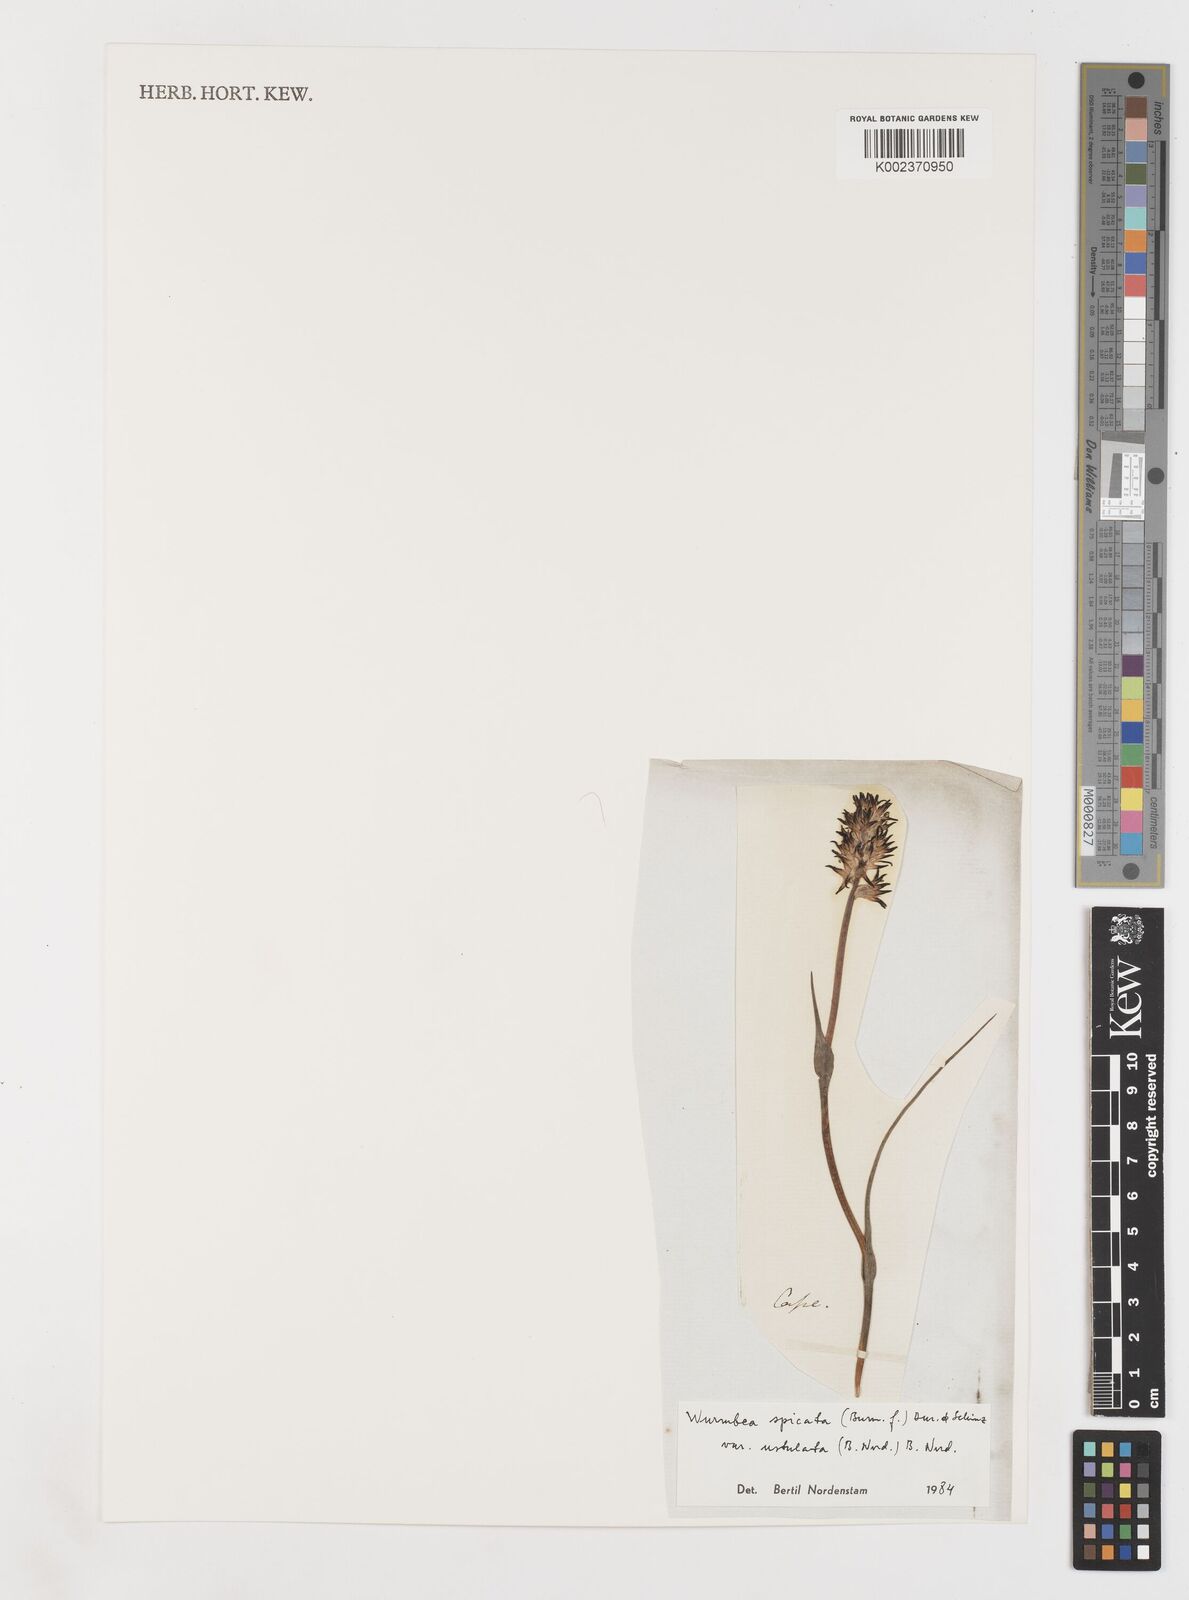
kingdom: Plantae
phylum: Tracheophyta
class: Liliopsida
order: Liliales
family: Colchicaceae
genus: Wurmbea
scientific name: Wurmbea spicata
